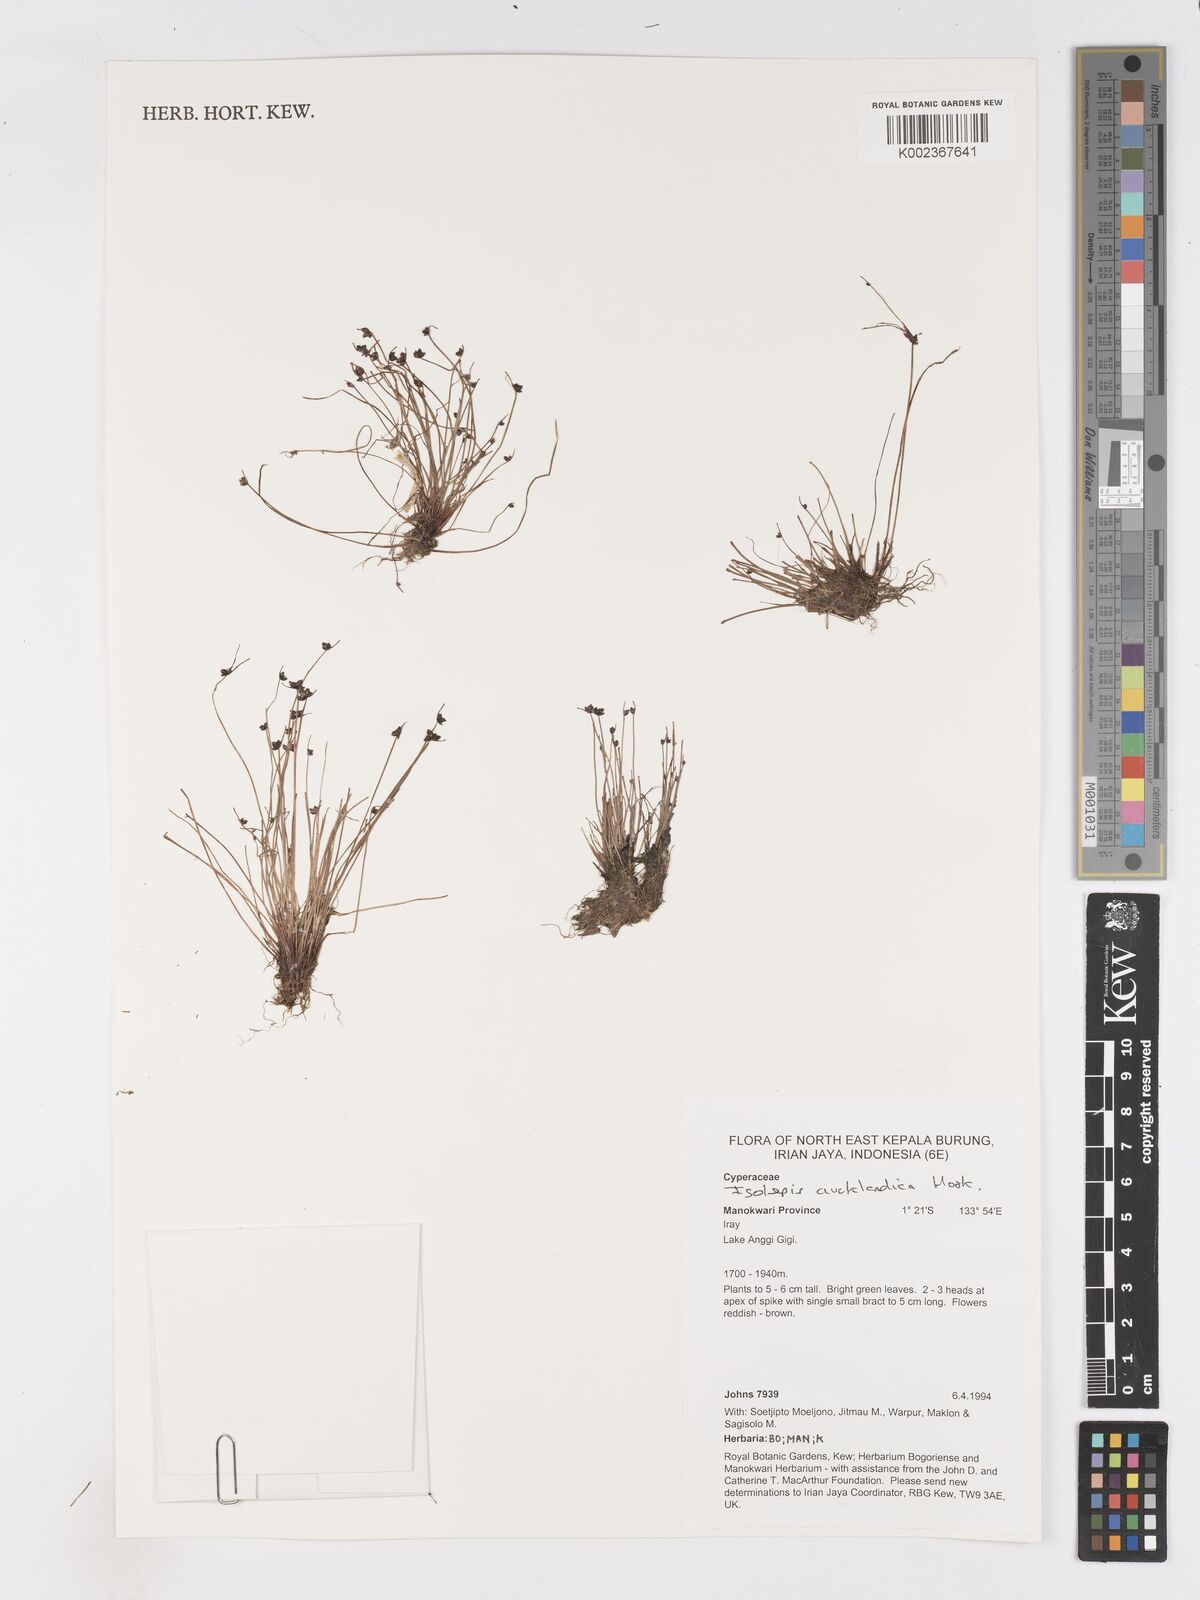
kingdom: Plantae
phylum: Tracheophyta
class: Liliopsida
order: Poales
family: Cyperaceae
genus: Isolepis
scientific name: Isolepis aucklandica
